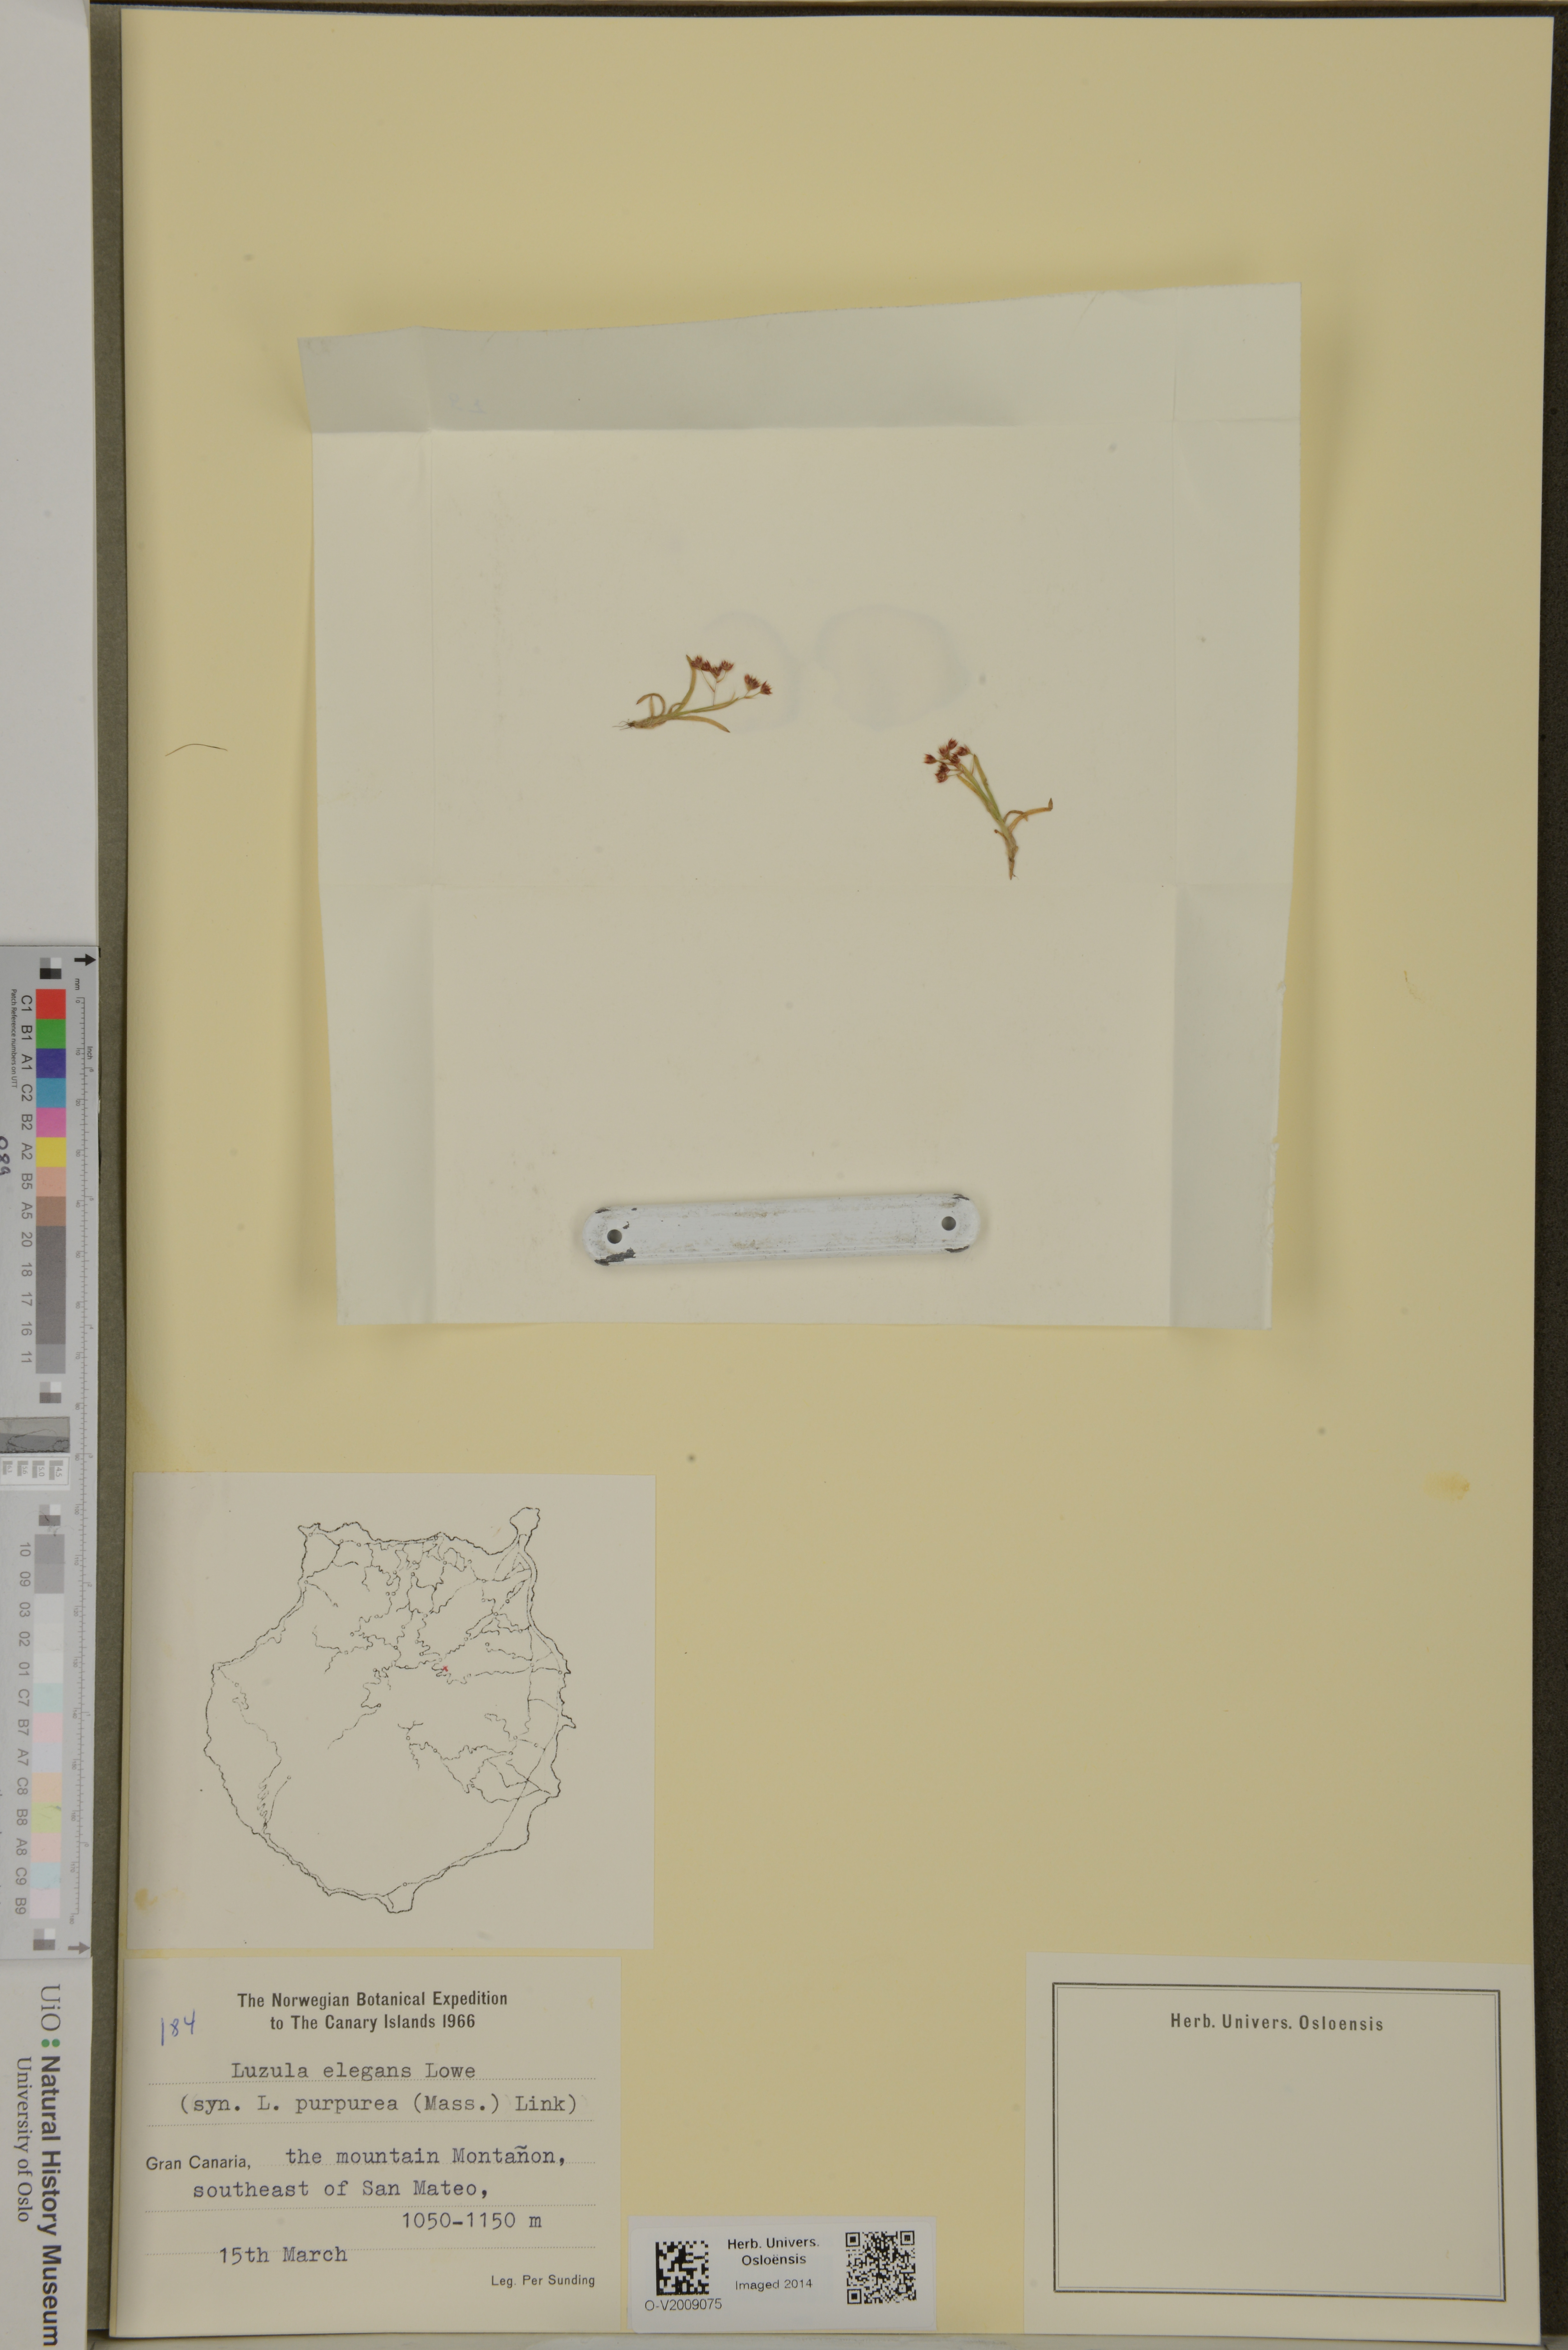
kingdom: Plantae
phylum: Tracheophyta
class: Liliopsida
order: Poales
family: Juncaceae
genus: Luzula
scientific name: Luzula elegans
